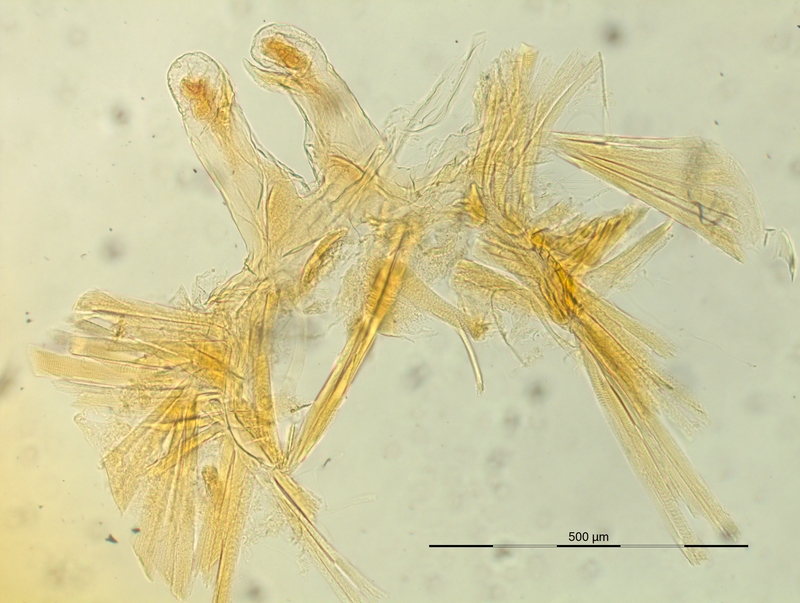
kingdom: Animalia
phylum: Arthropoda
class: Diplopoda
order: Chordeumatida
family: Craspedosomatidae
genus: Listrocheiritium
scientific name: Listrocheiritium noricum
